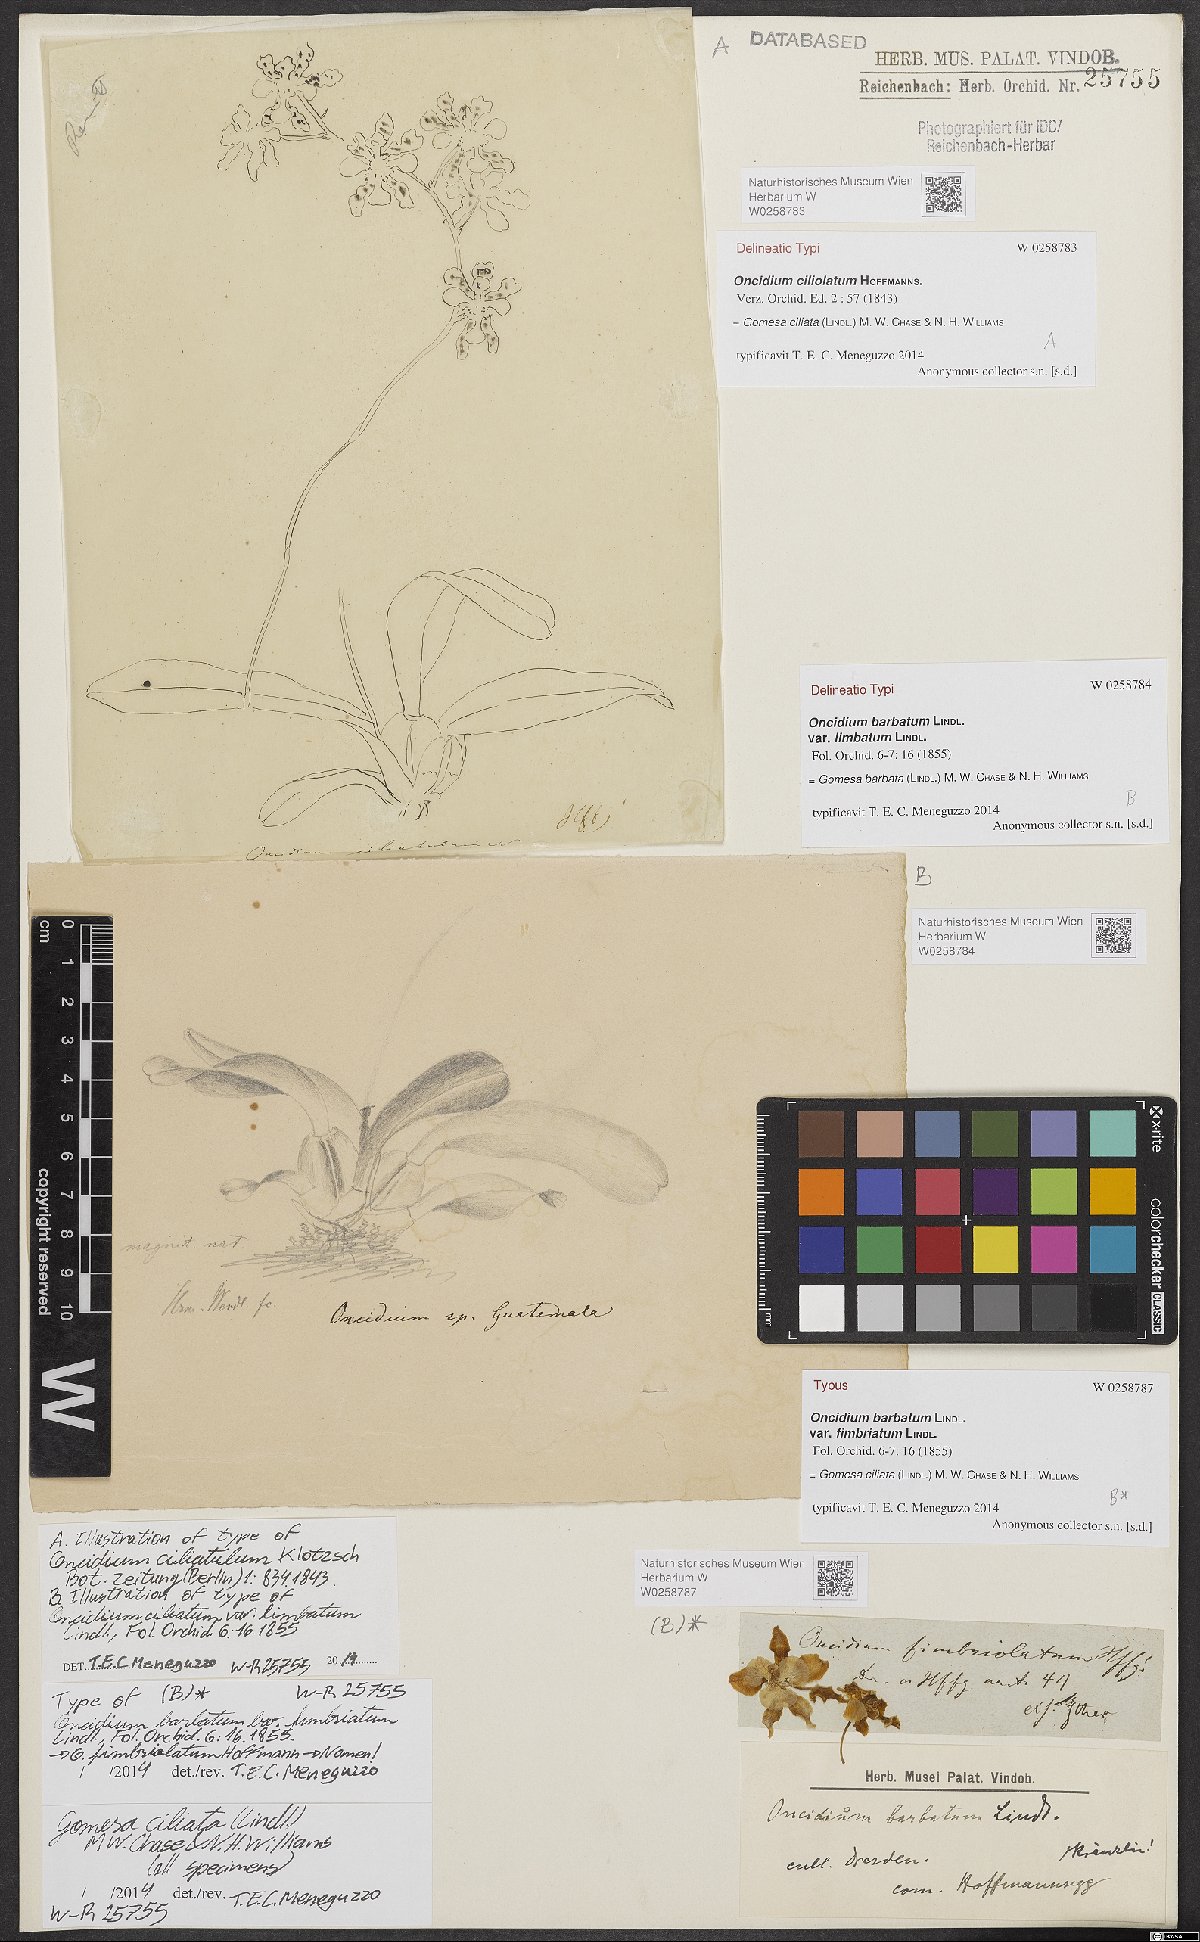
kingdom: Plantae
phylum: Tracheophyta
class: Liliopsida
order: Asparagales
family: Orchidaceae
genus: Gomesa
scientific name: Gomesa barbata
